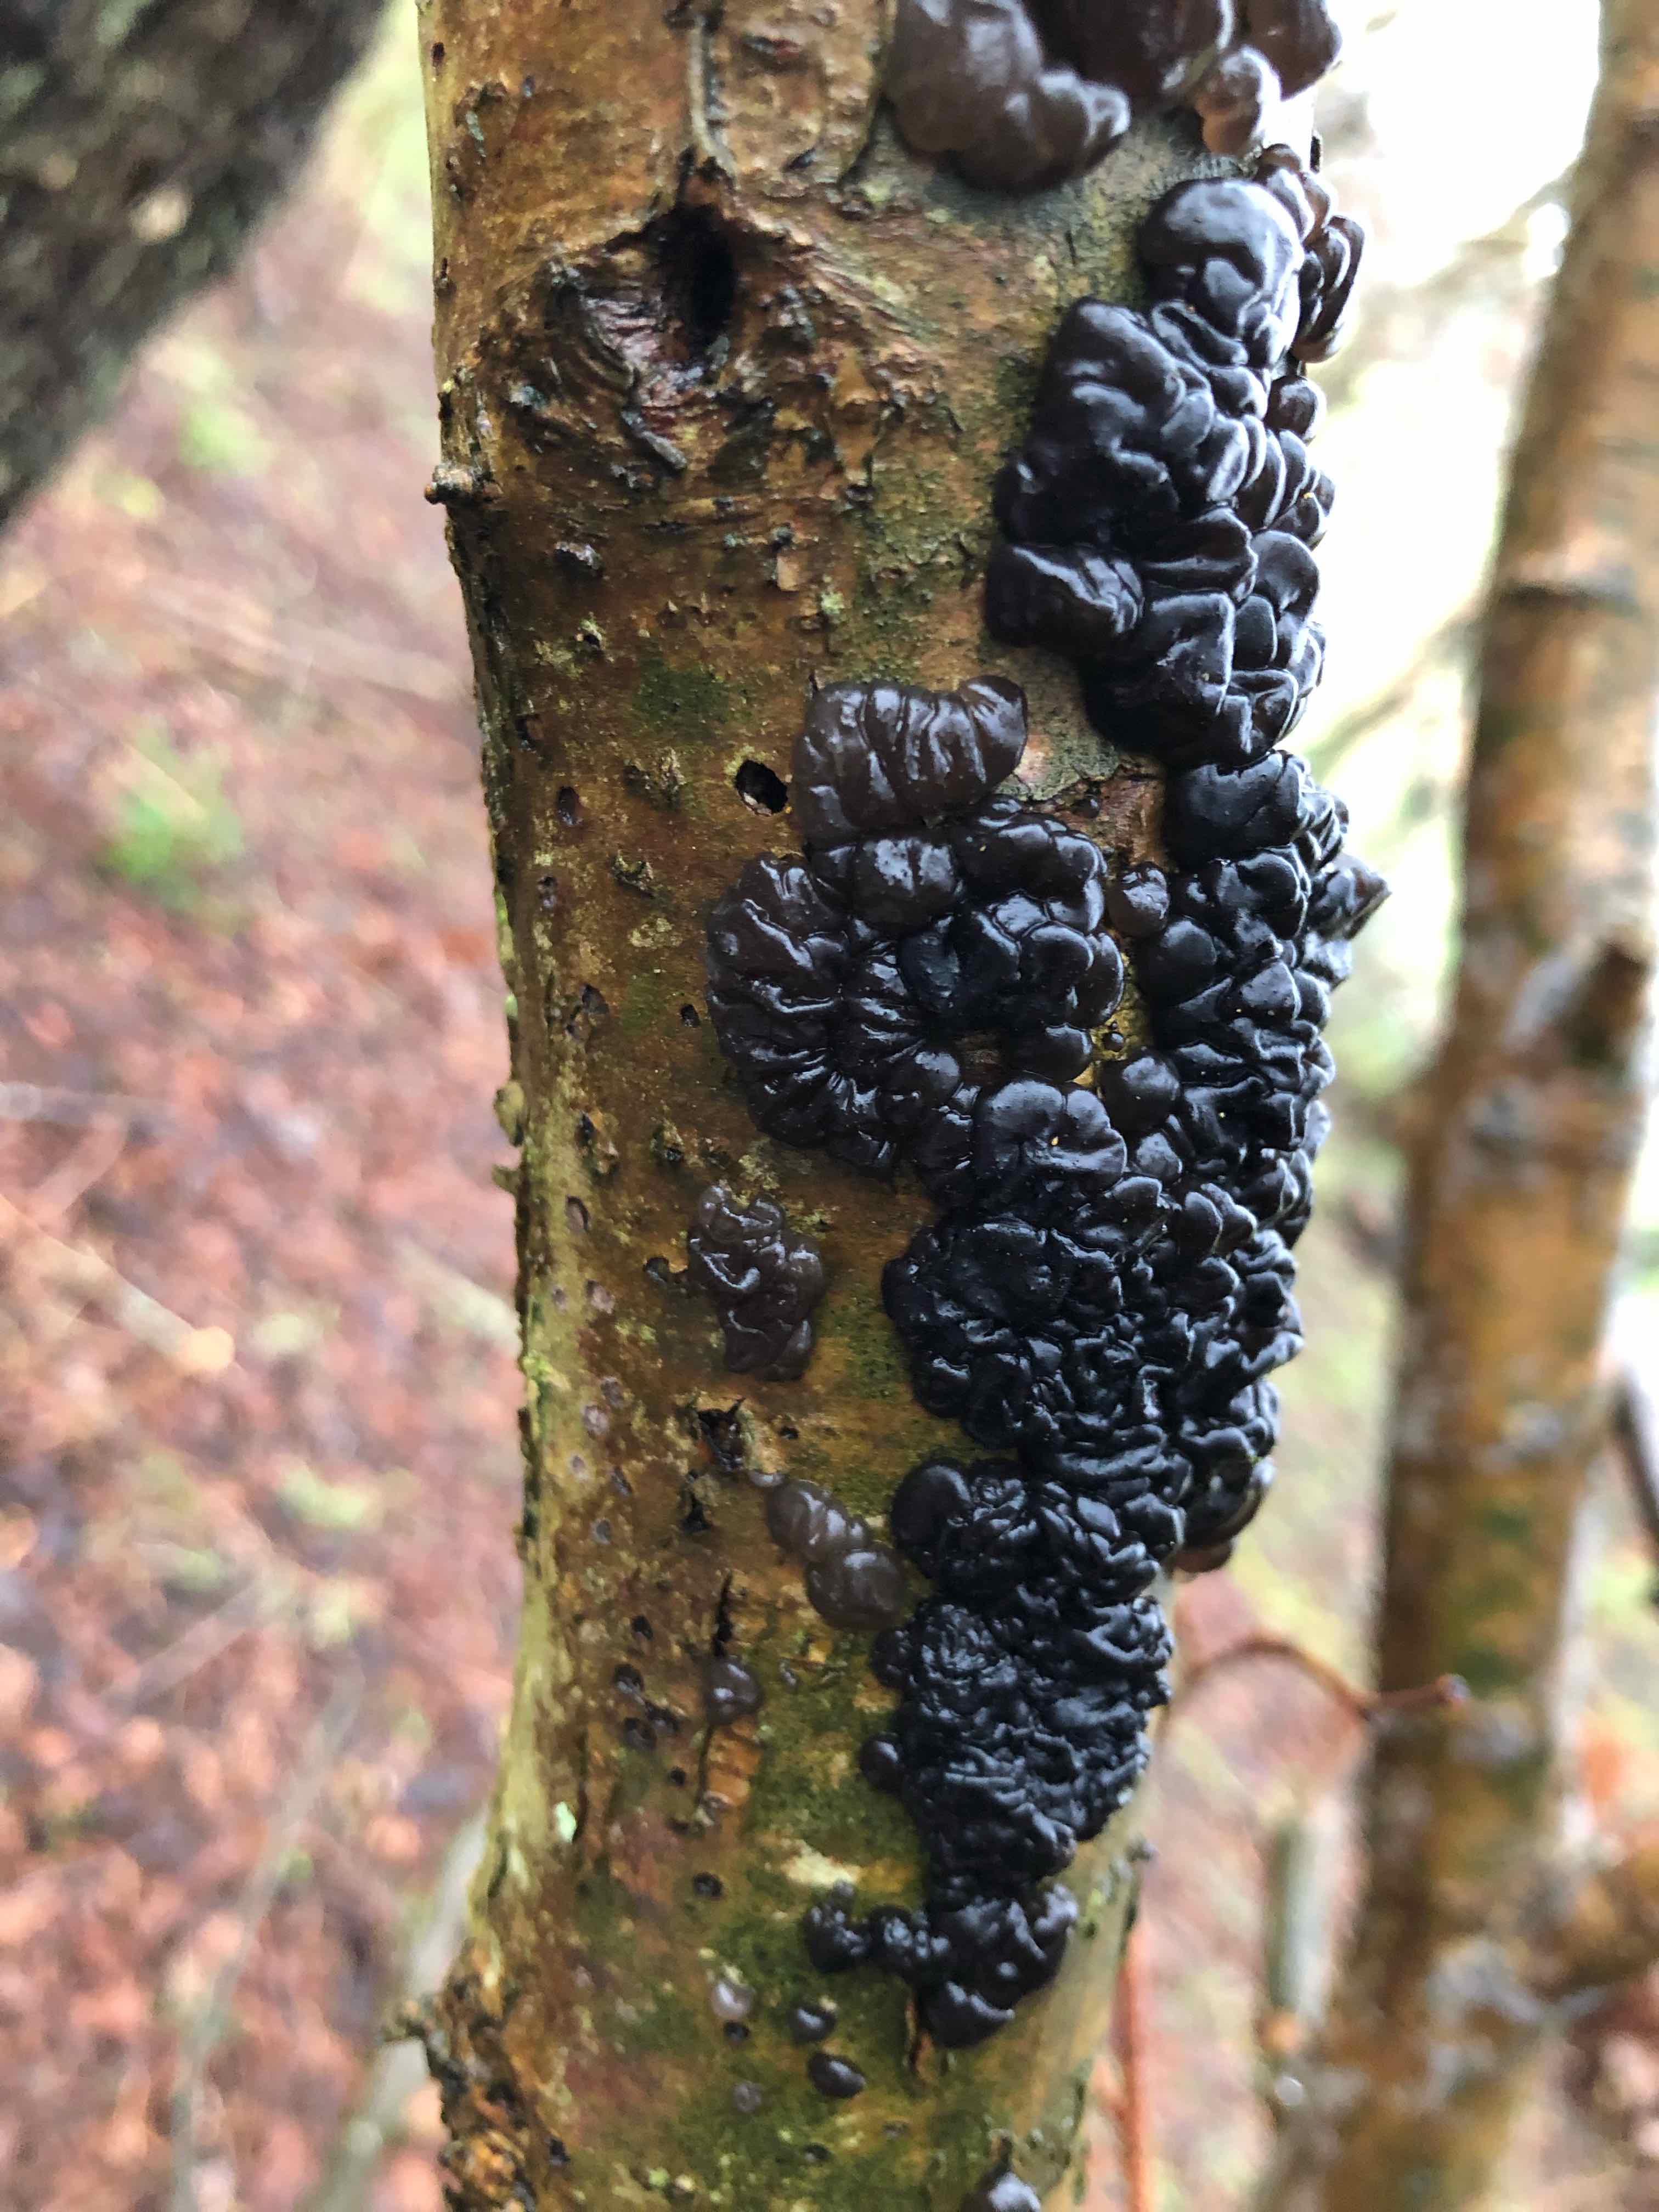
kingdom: Fungi
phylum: Basidiomycota
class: Agaricomycetes
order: Auriculariales
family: Auriculariaceae
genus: Exidia
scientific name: Exidia nigricans
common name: almindelig bævretop
